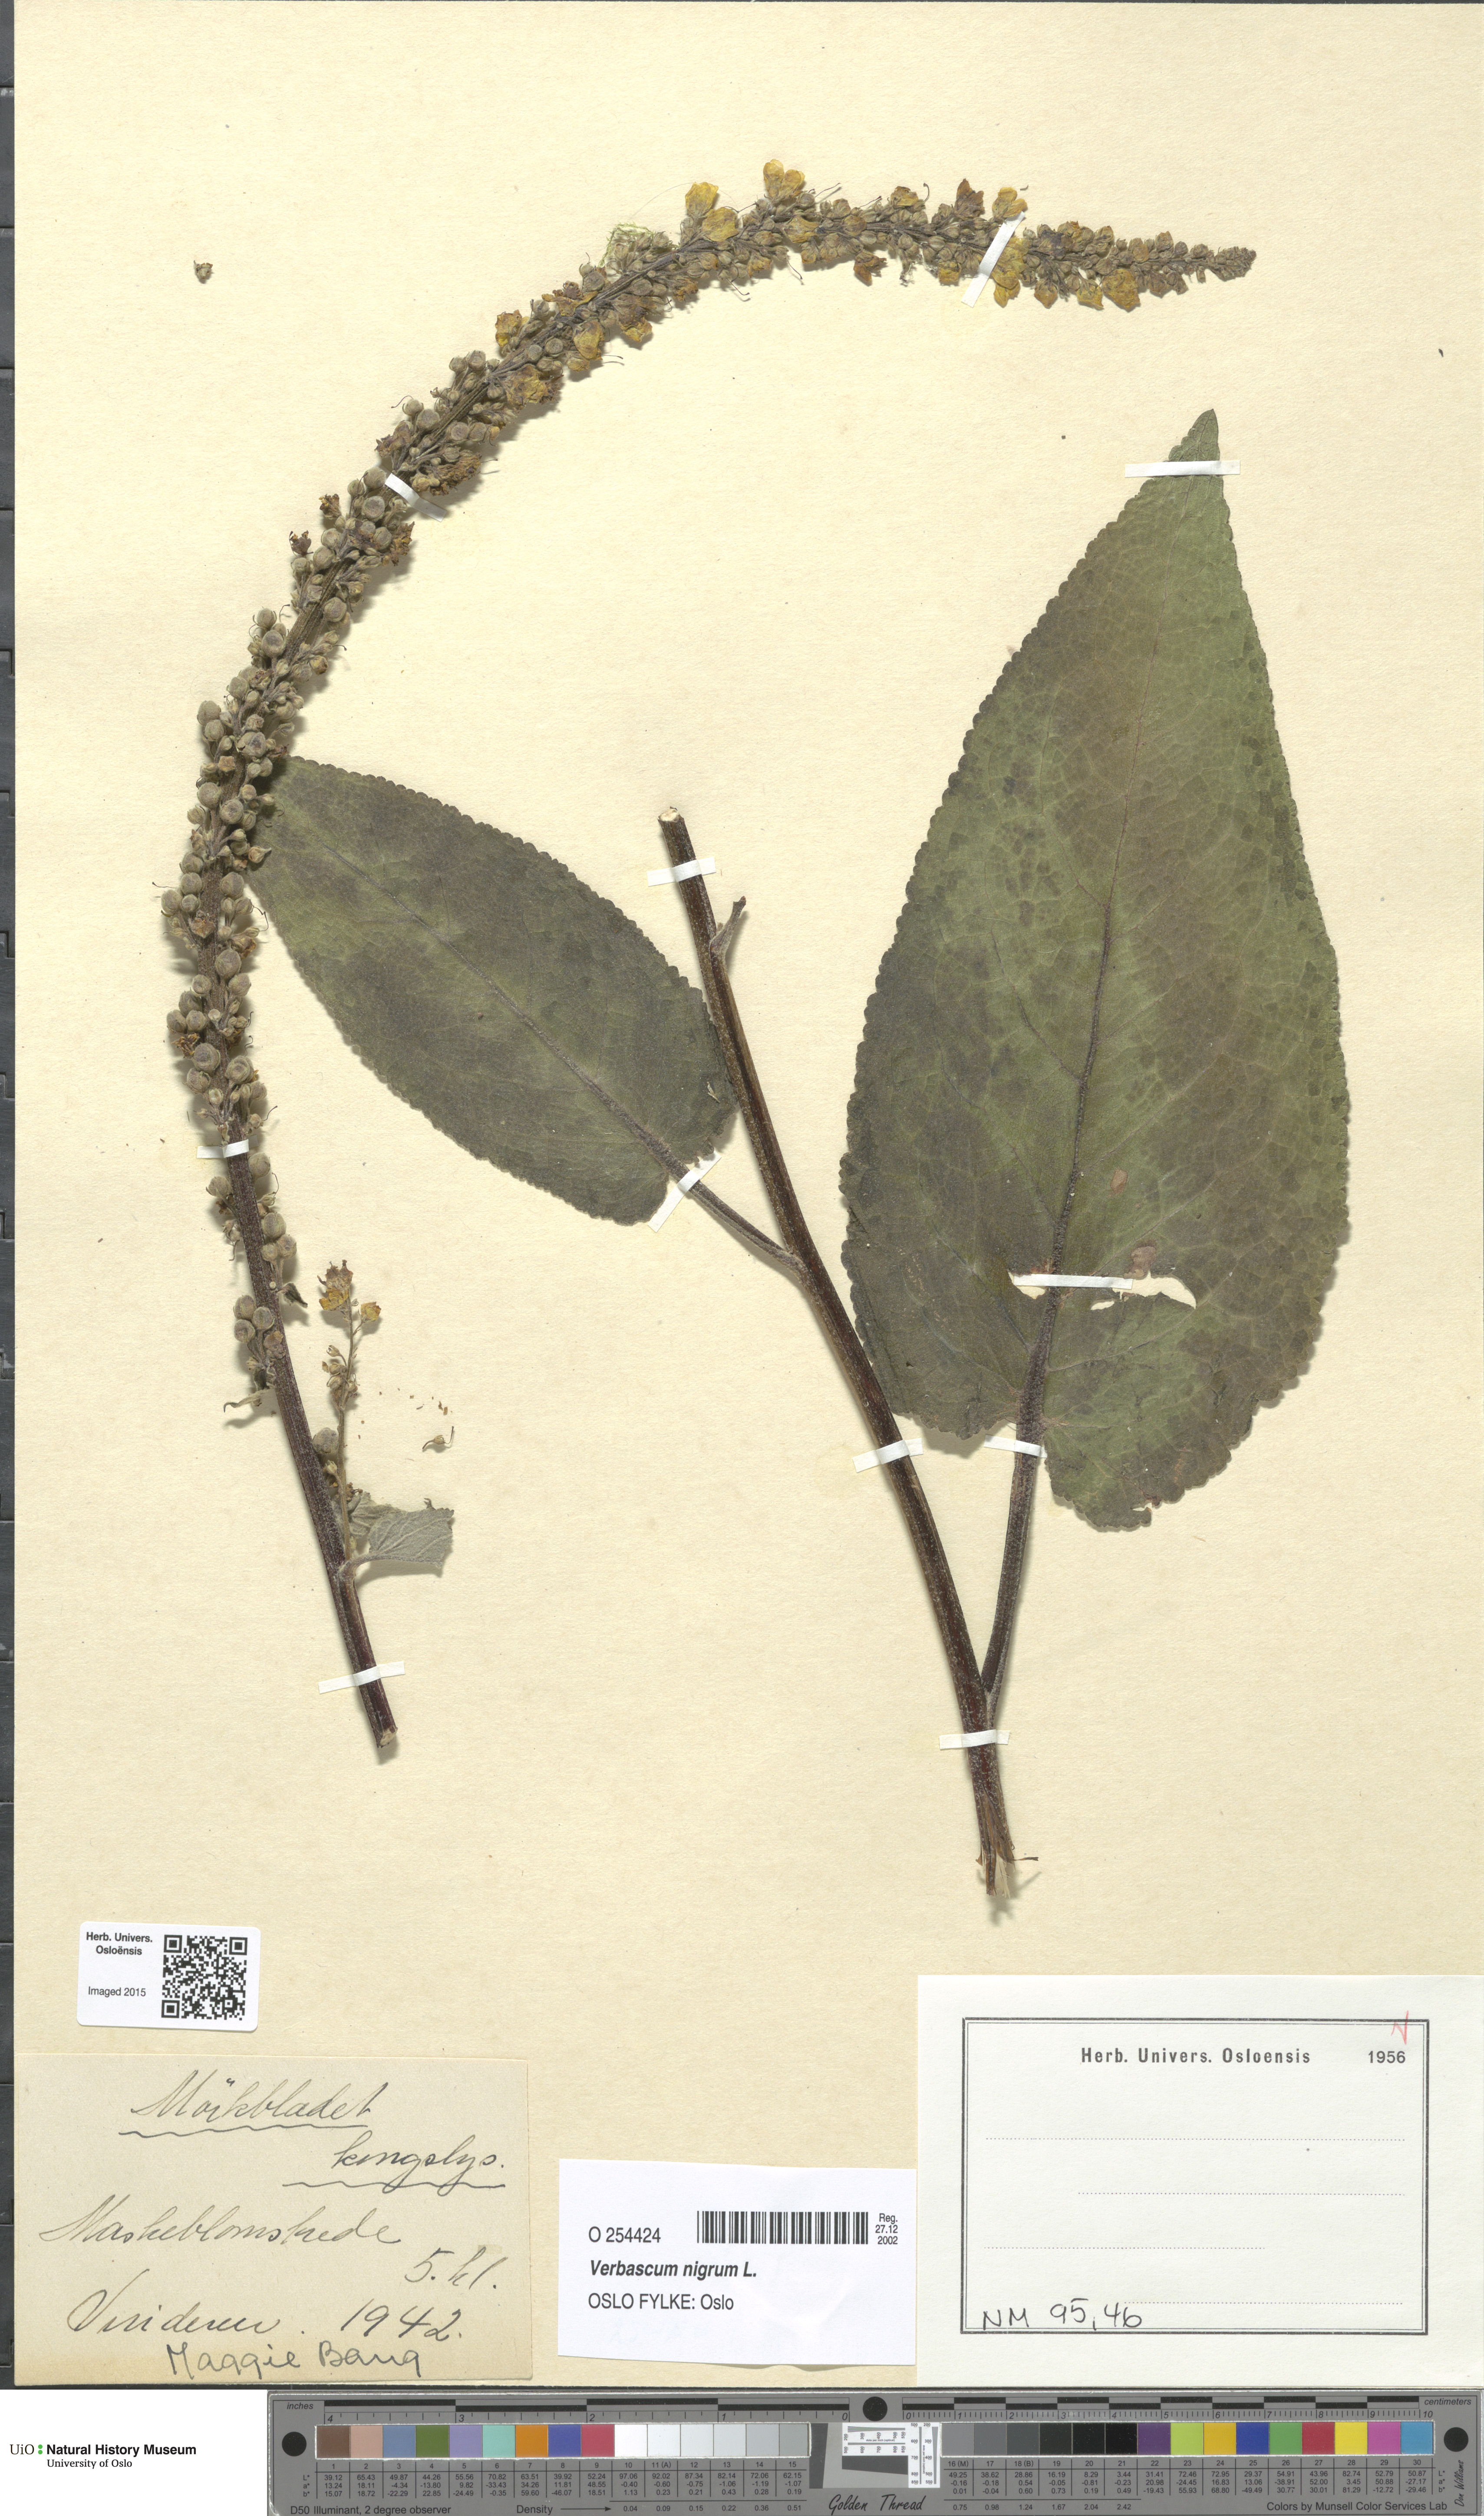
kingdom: Plantae
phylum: Tracheophyta
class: Magnoliopsida
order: Lamiales
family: Scrophulariaceae
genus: Verbascum
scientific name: Verbascum nigrum
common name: Dark mullein
